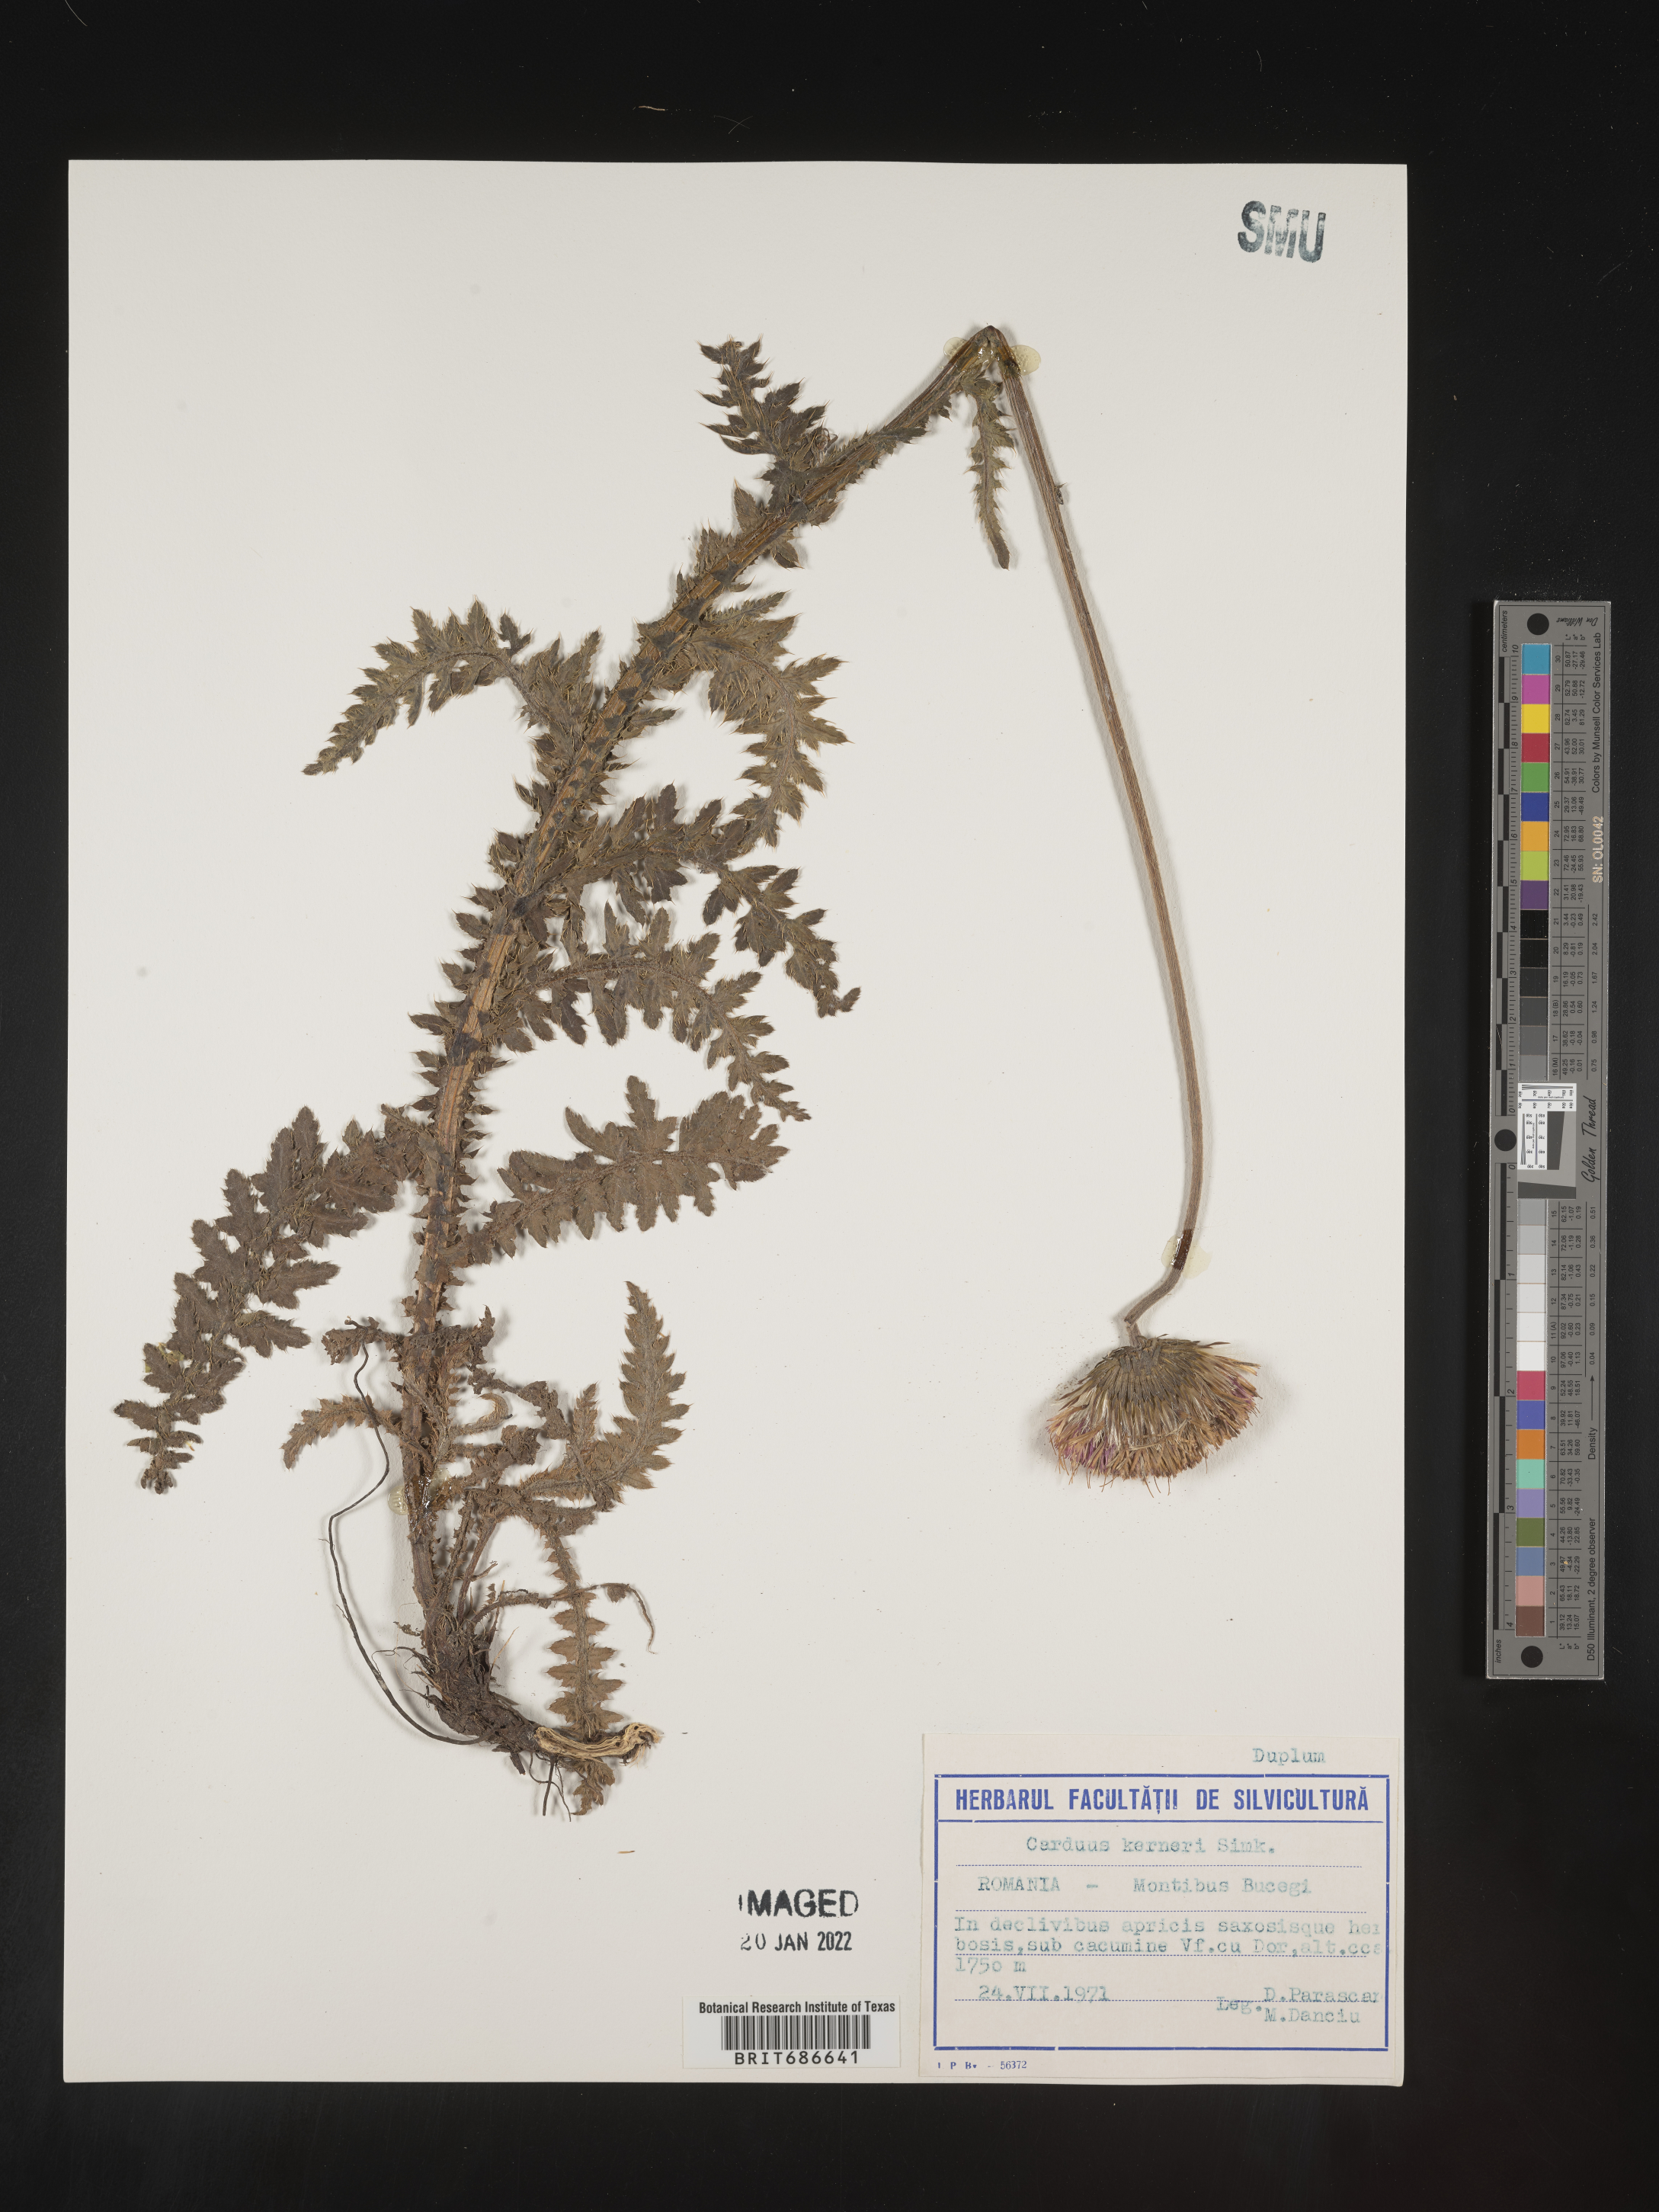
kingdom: Plantae
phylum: Tracheophyta
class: Magnoliopsida
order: Asterales
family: Asteraceae
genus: Carduus
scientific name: Carduus
